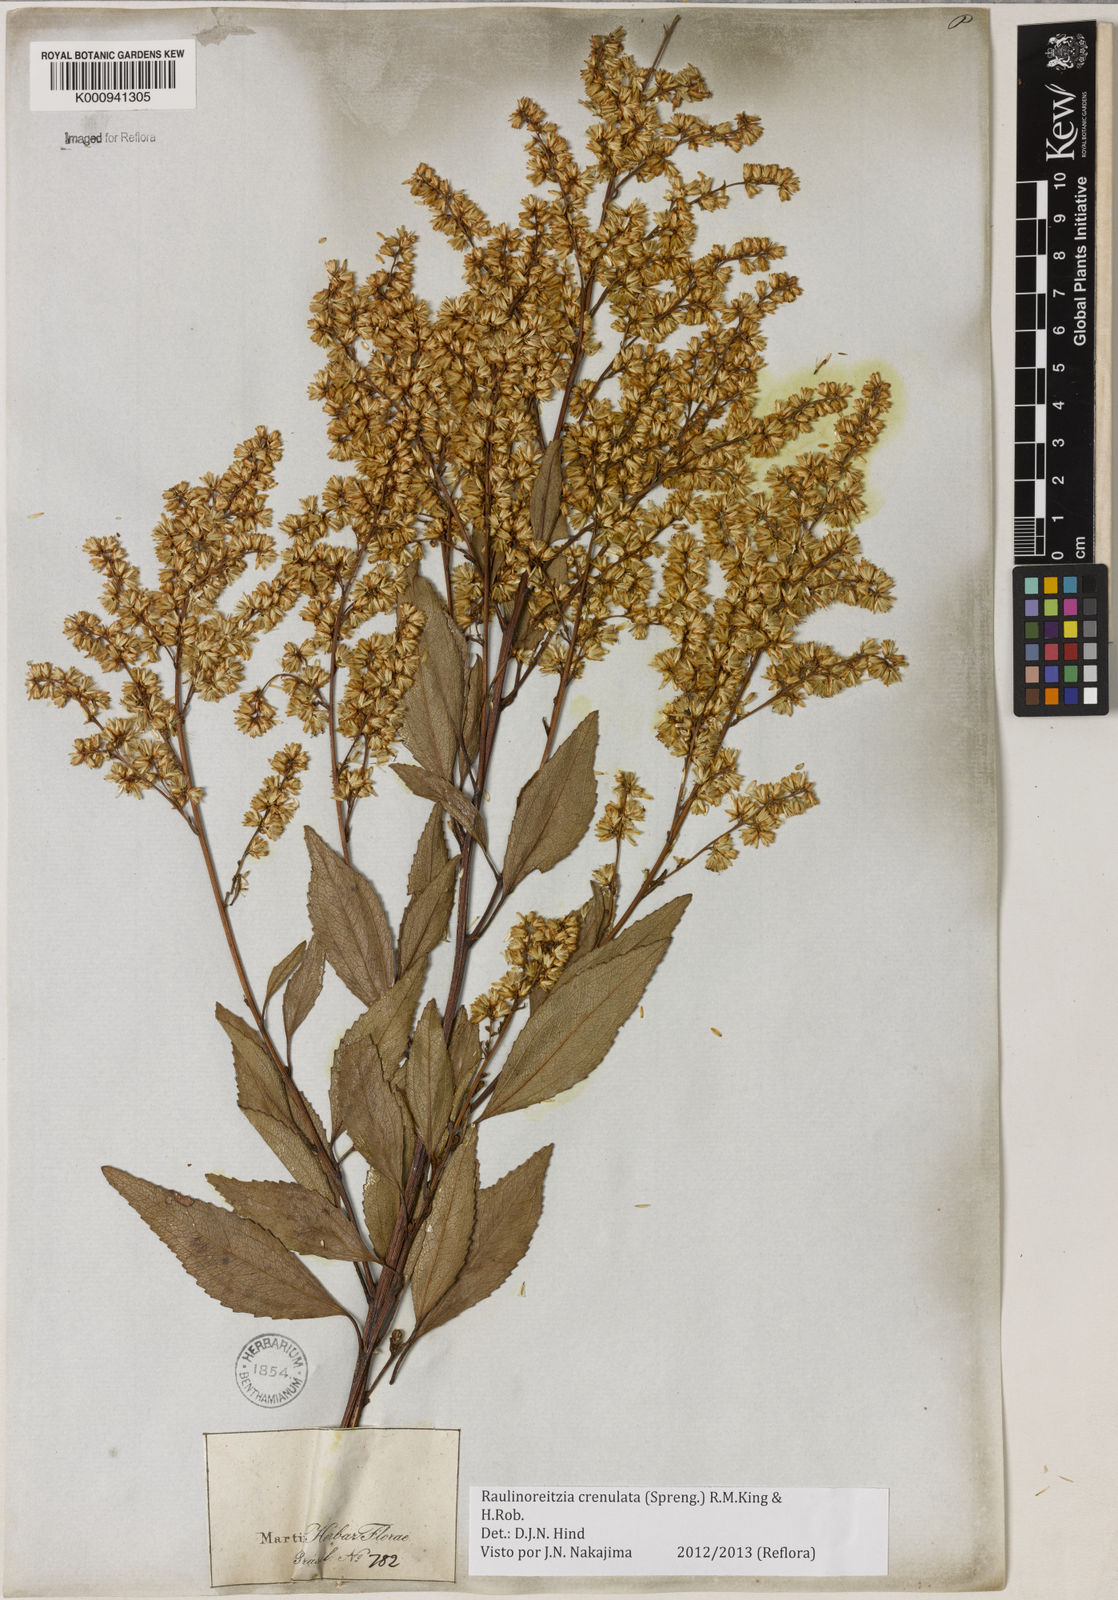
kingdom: Plantae
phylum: Tracheophyta
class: Magnoliopsida
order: Asterales
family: Asteraceae
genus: Raulinoreitzia
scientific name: Raulinoreitzia crenulata
